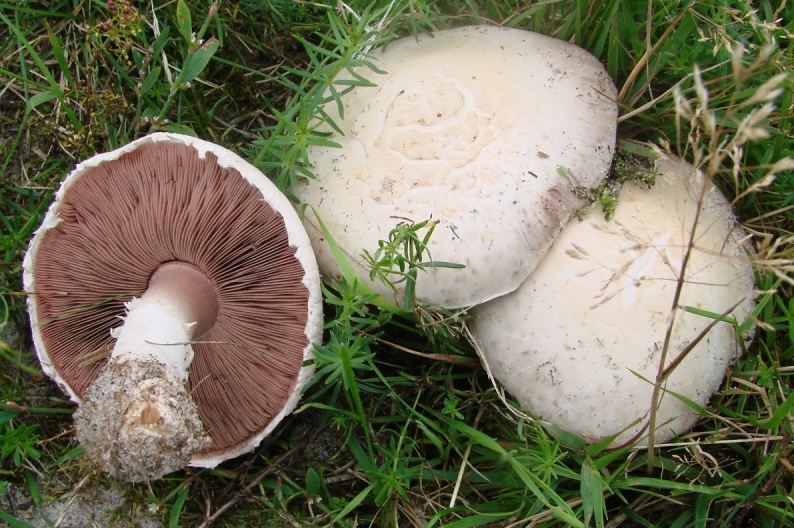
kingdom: Fungi
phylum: Basidiomycota
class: Agaricomycetes
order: Agaricales
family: Agaricaceae
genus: Agaricus
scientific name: Agaricus campestris
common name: mark-champignon
